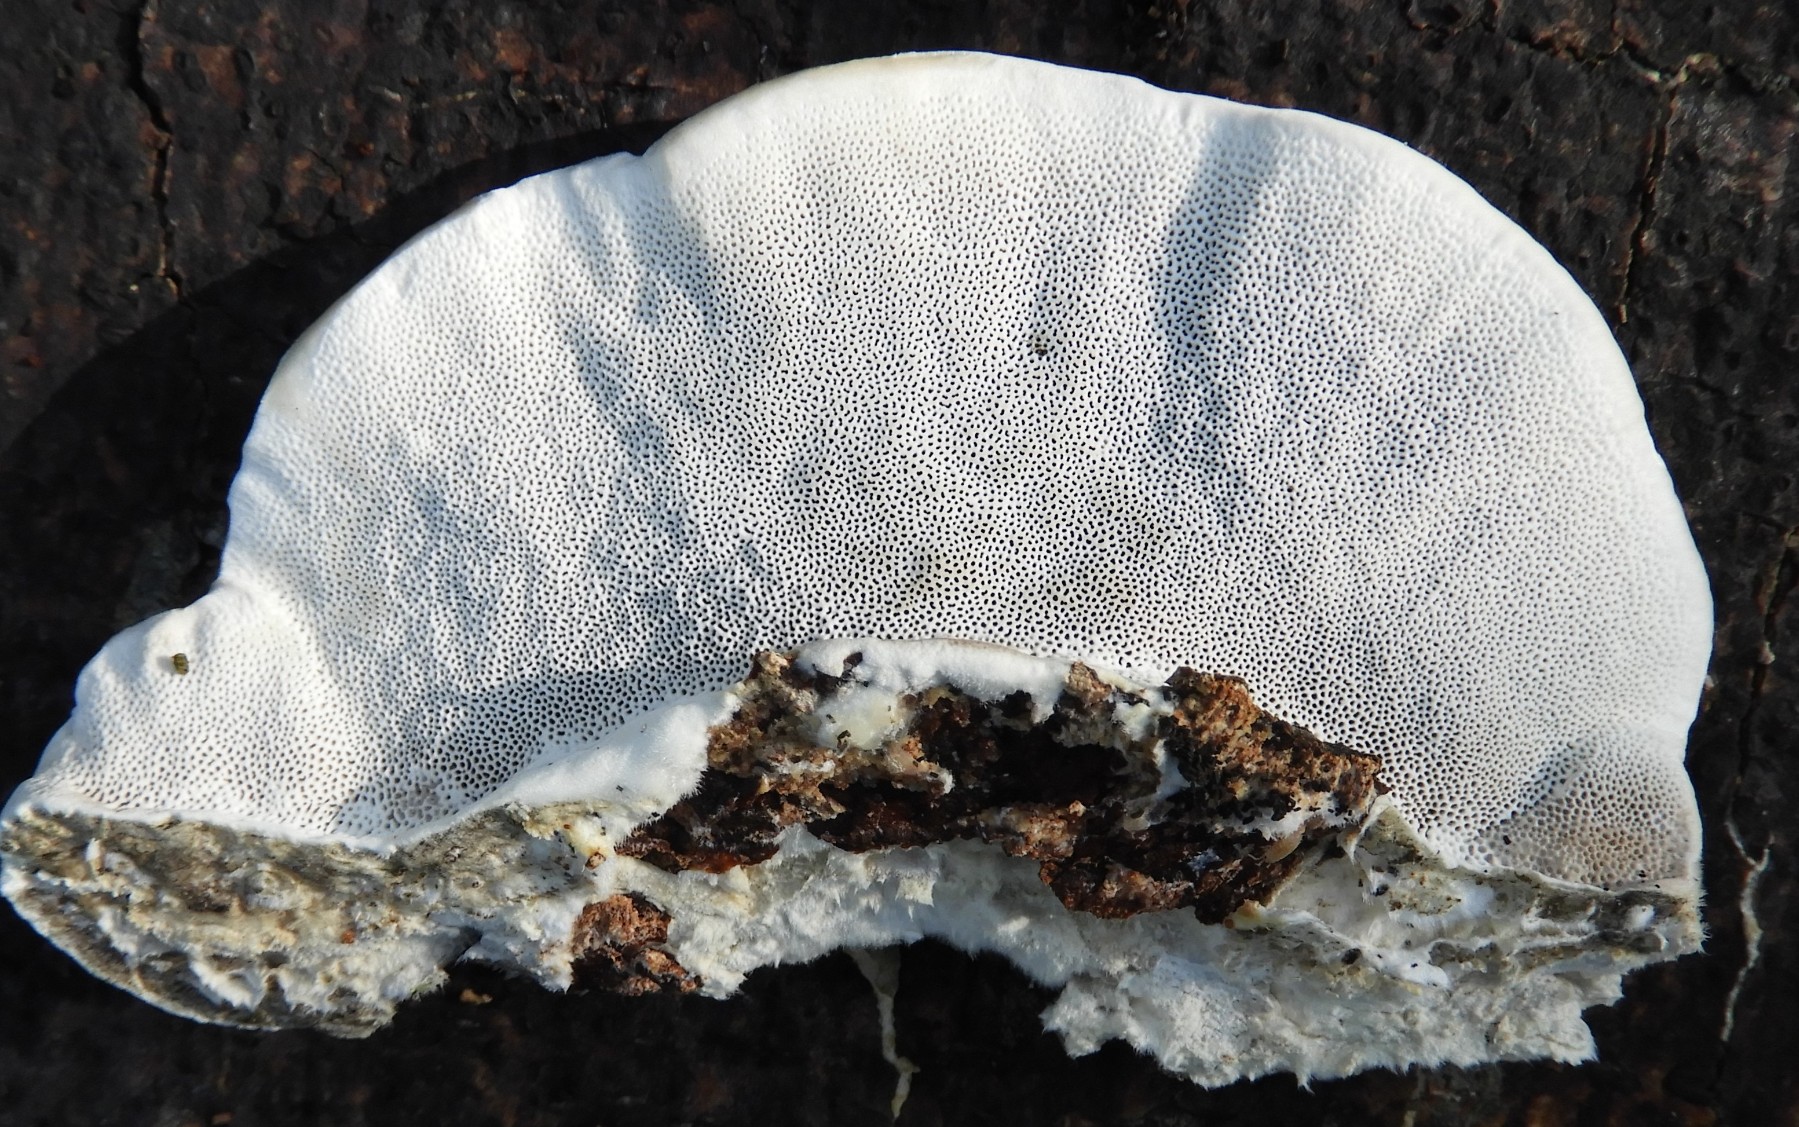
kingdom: Fungi
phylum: Basidiomycota
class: Agaricomycetes
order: Polyporales
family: Polyporaceae
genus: Trametes
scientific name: Trametes hirsuta
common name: håret læderporesvamp
